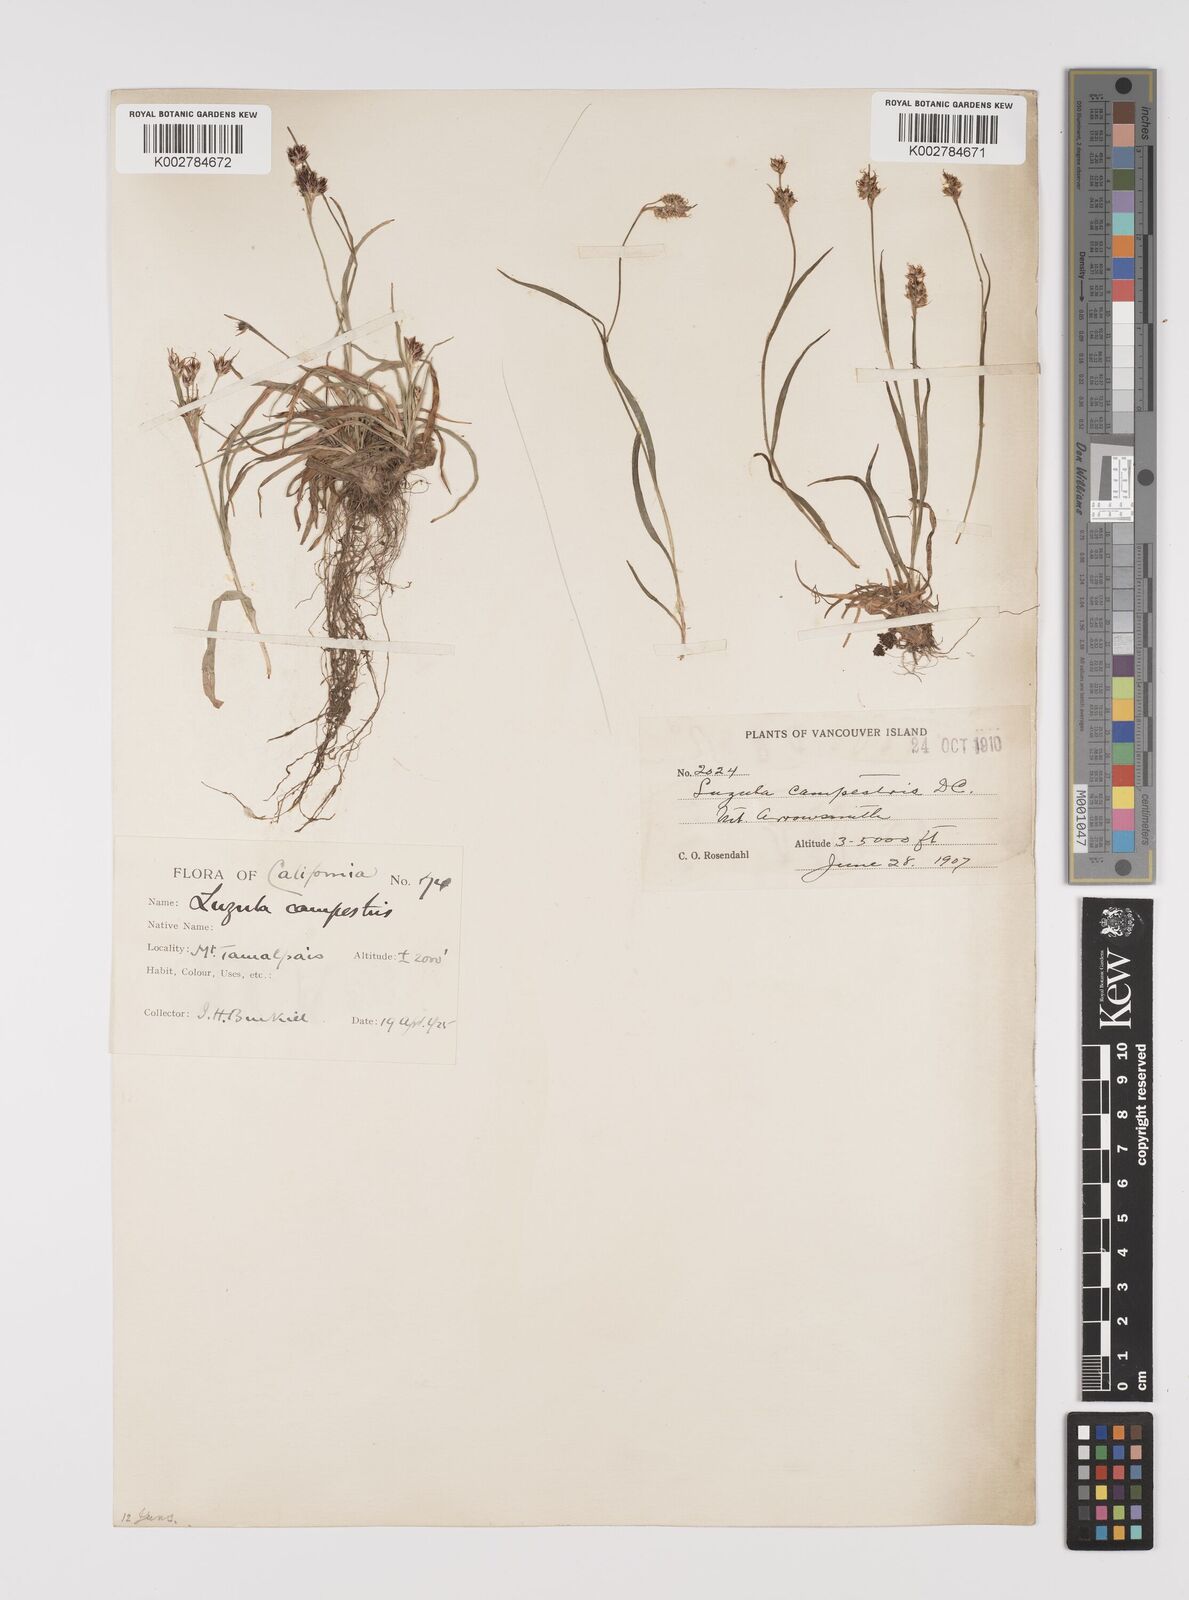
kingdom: Plantae
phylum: Tracheophyta
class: Liliopsida
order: Poales
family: Juncaceae
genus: Luzula
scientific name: Luzula campestris
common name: Field wood-rush
